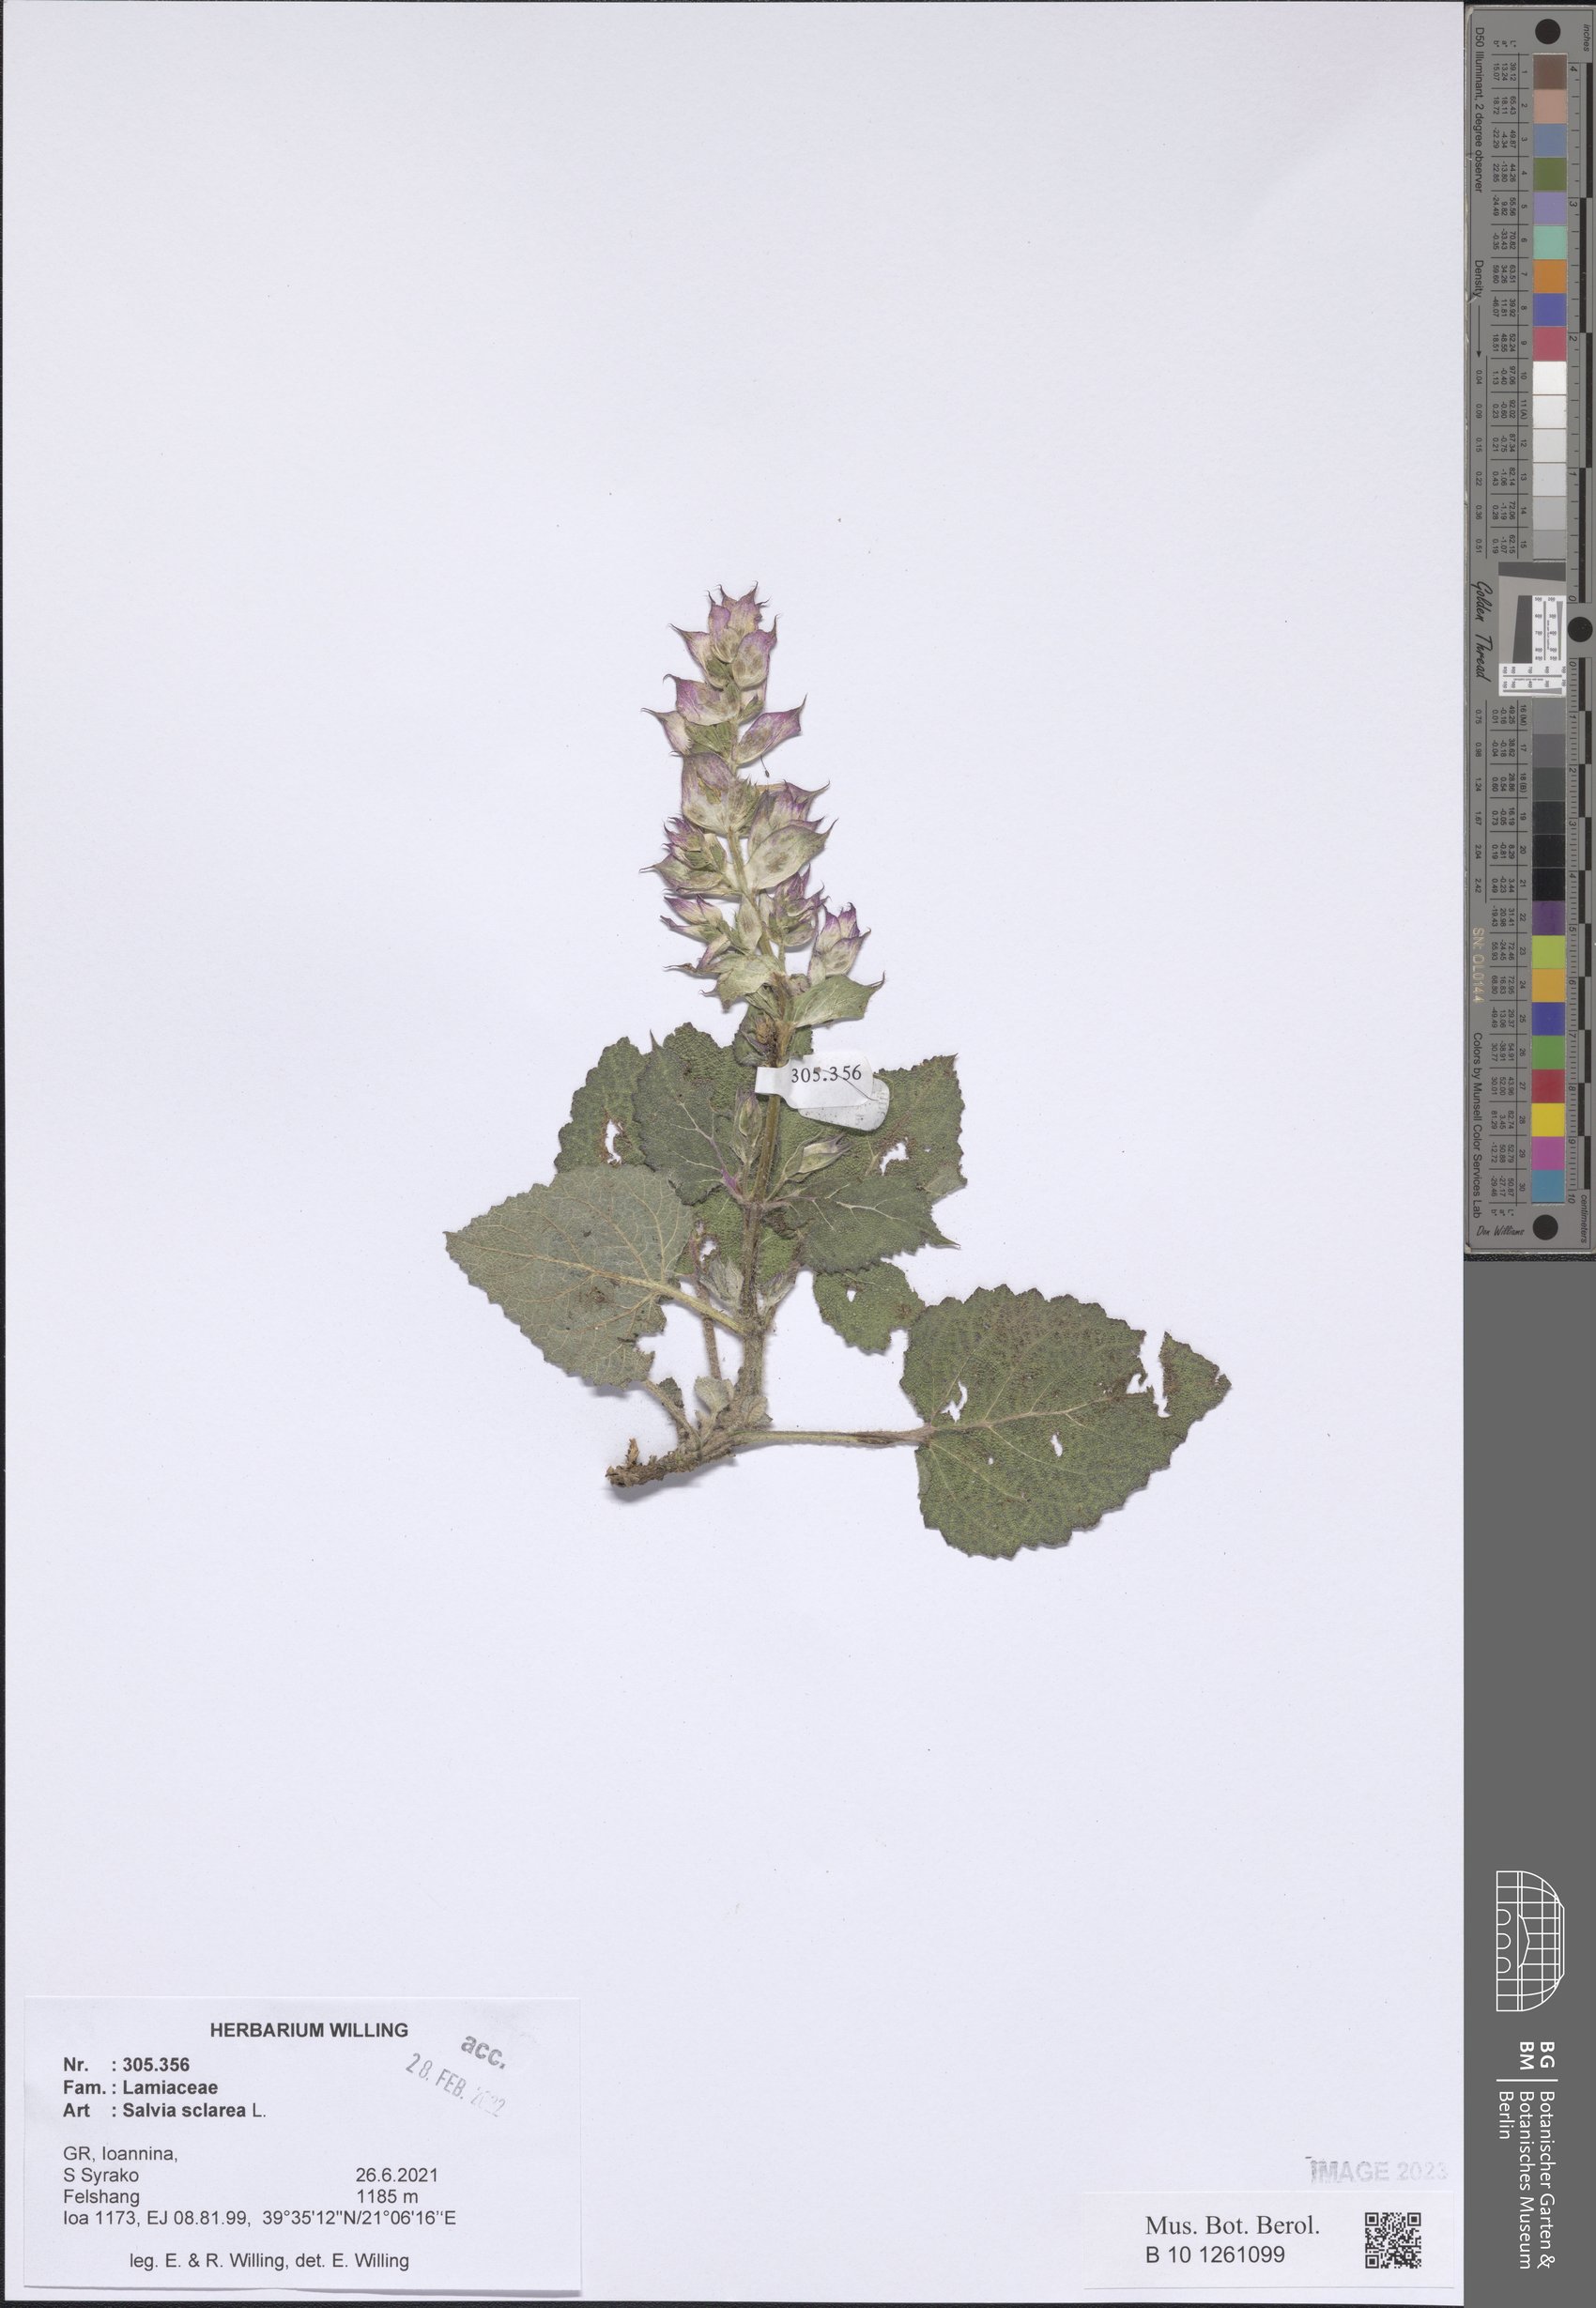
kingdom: Plantae
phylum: Tracheophyta
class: Magnoliopsida
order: Lamiales
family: Lamiaceae
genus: Salvia
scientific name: Salvia sclarea
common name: Clary
